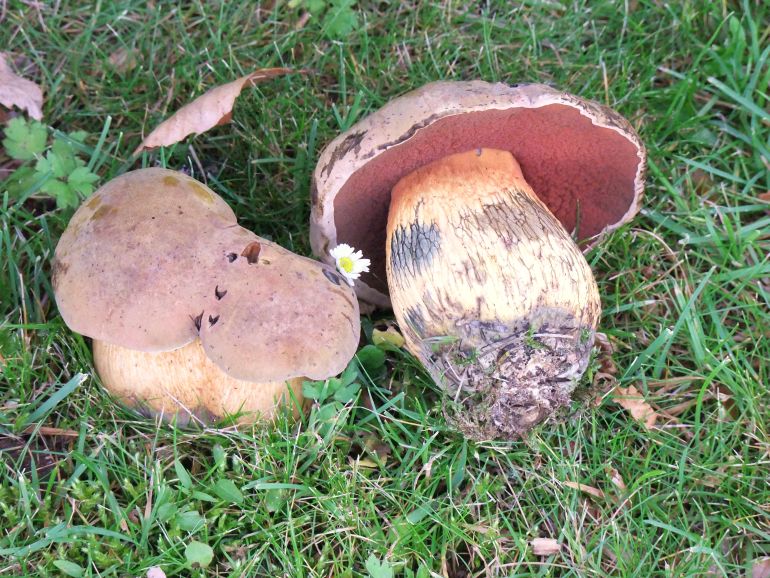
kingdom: Fungi
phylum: Basidiomycota
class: Agaricomycetes
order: Boletales
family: Boletaceae
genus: Suillellus
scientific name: Suillellus luridus
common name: netstokket indigorørhat
